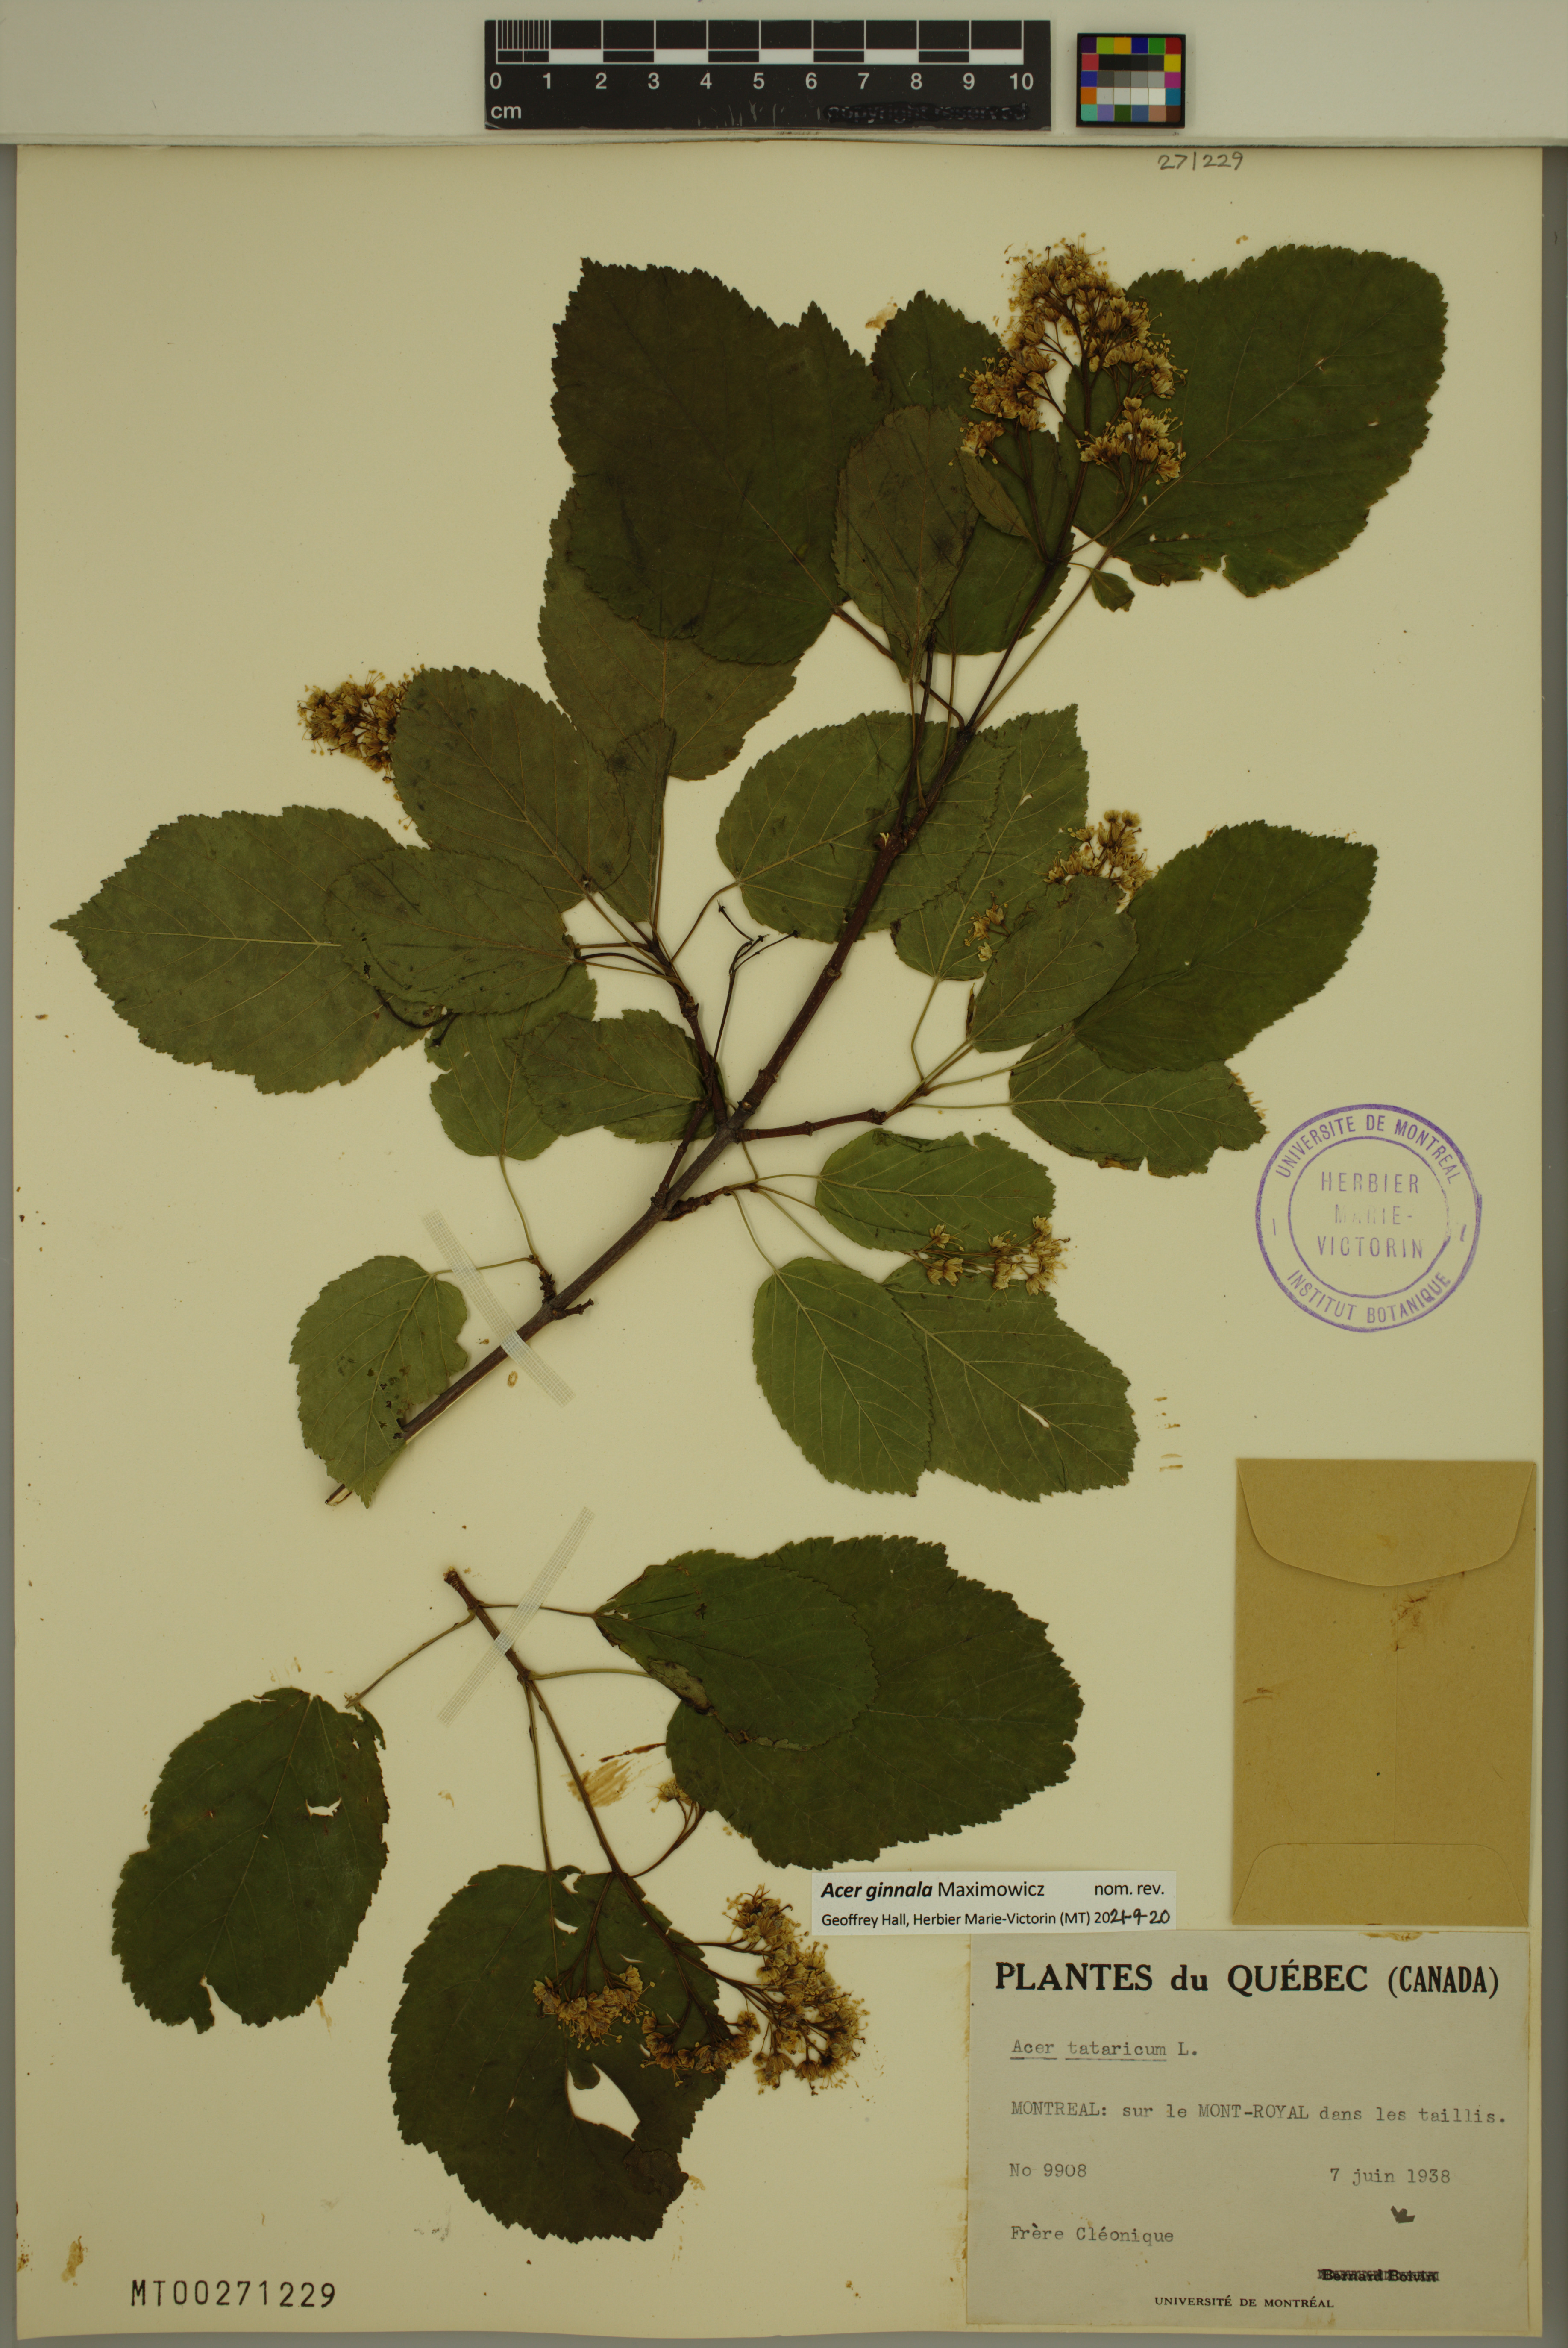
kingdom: Plantae
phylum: Tracheophyta
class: Magnoliopsida
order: Sapindales
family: Sapindaceae
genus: Acer
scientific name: Acer tataricum
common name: Tartar maple
